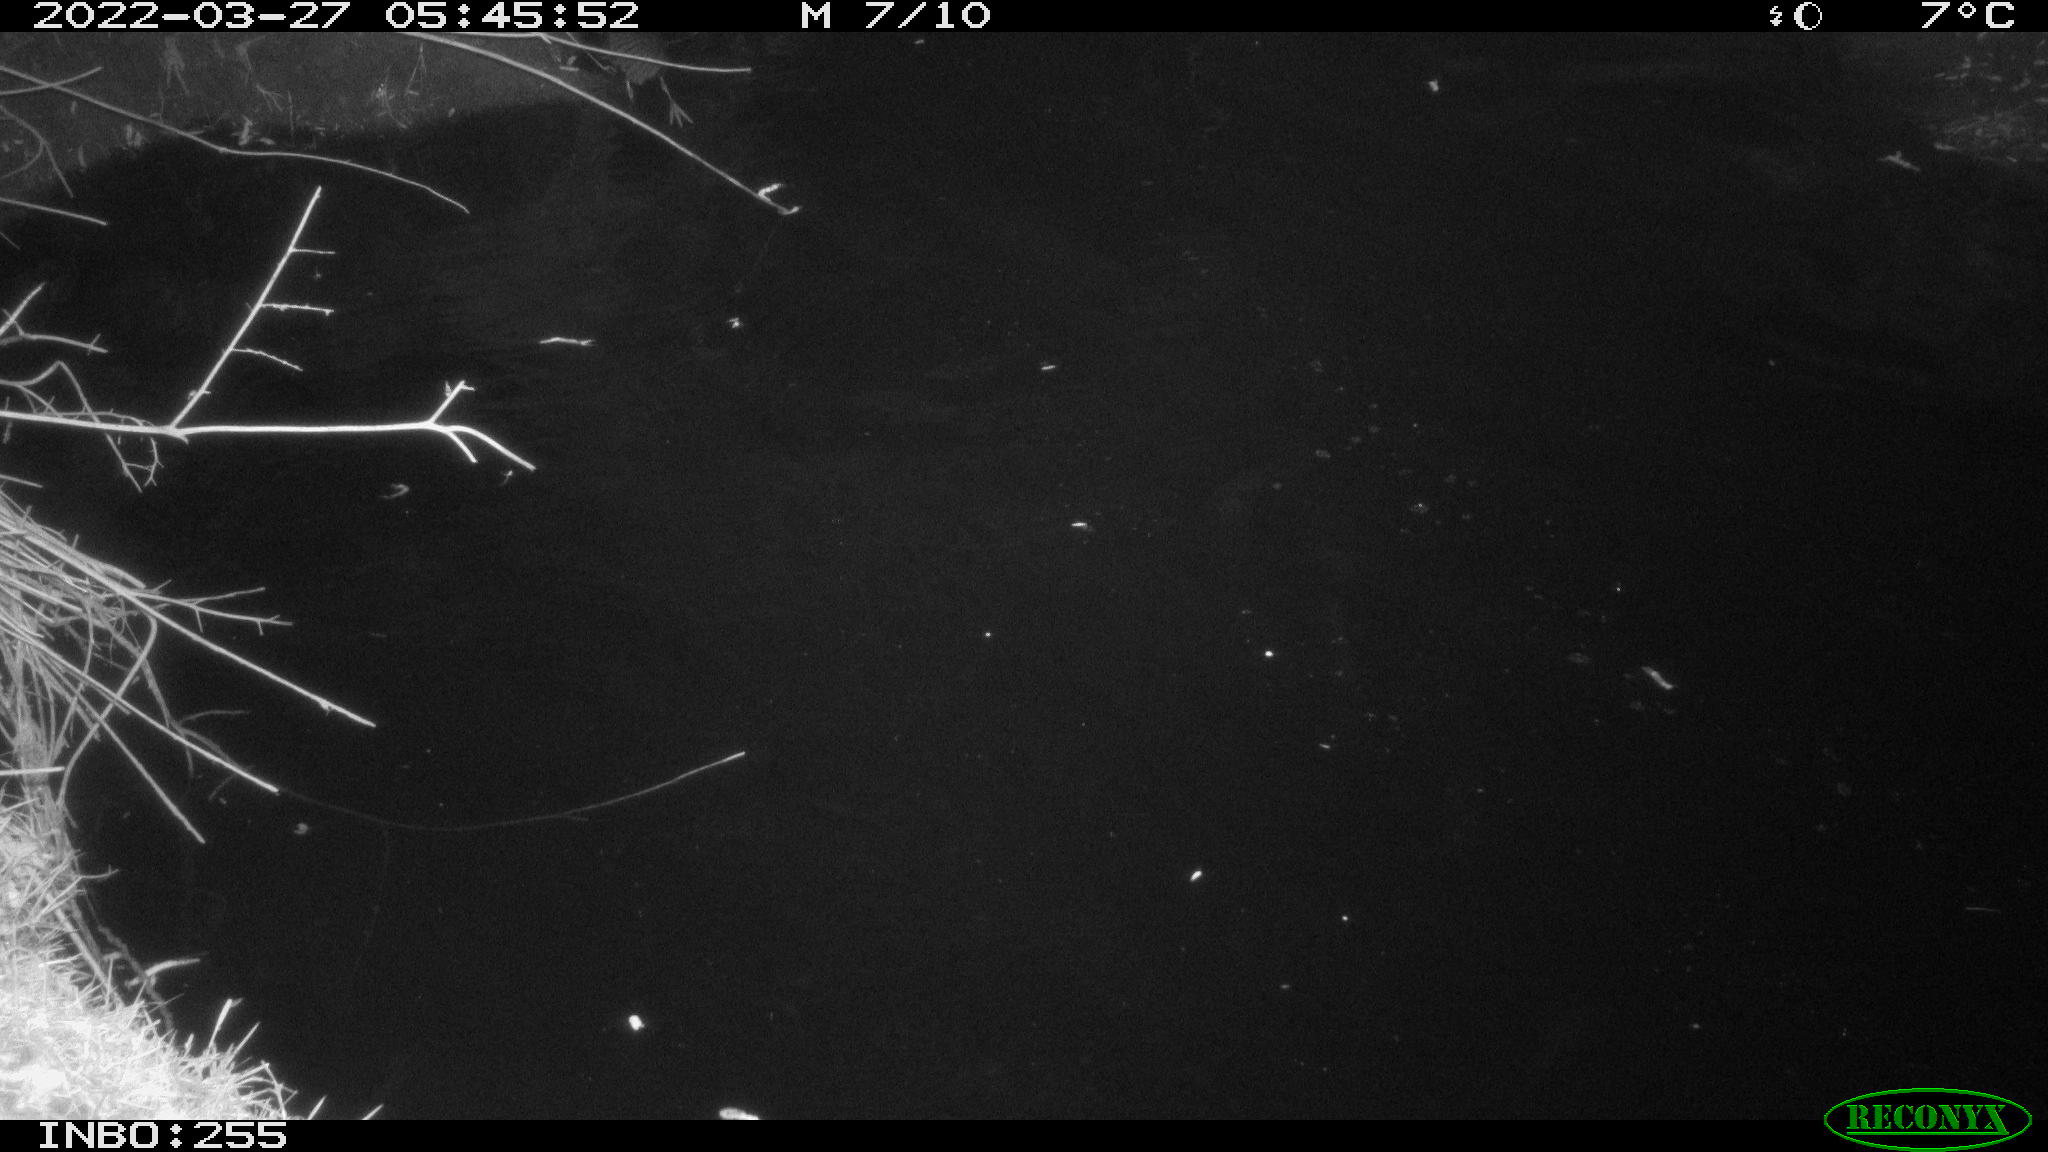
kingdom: Animalia
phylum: Chordata
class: Aves
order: Gruiformes
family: Rallidae
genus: Gallinula
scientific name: Gallinula chloropus
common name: Common moorhen
